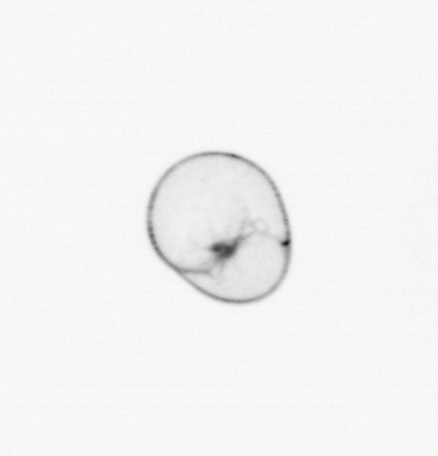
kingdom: Chromista
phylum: Myzozoa
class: Dinophyceae
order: Noctilucales
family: Noctilucaceae
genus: Noctiluca
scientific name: Noctiluca scintillans
